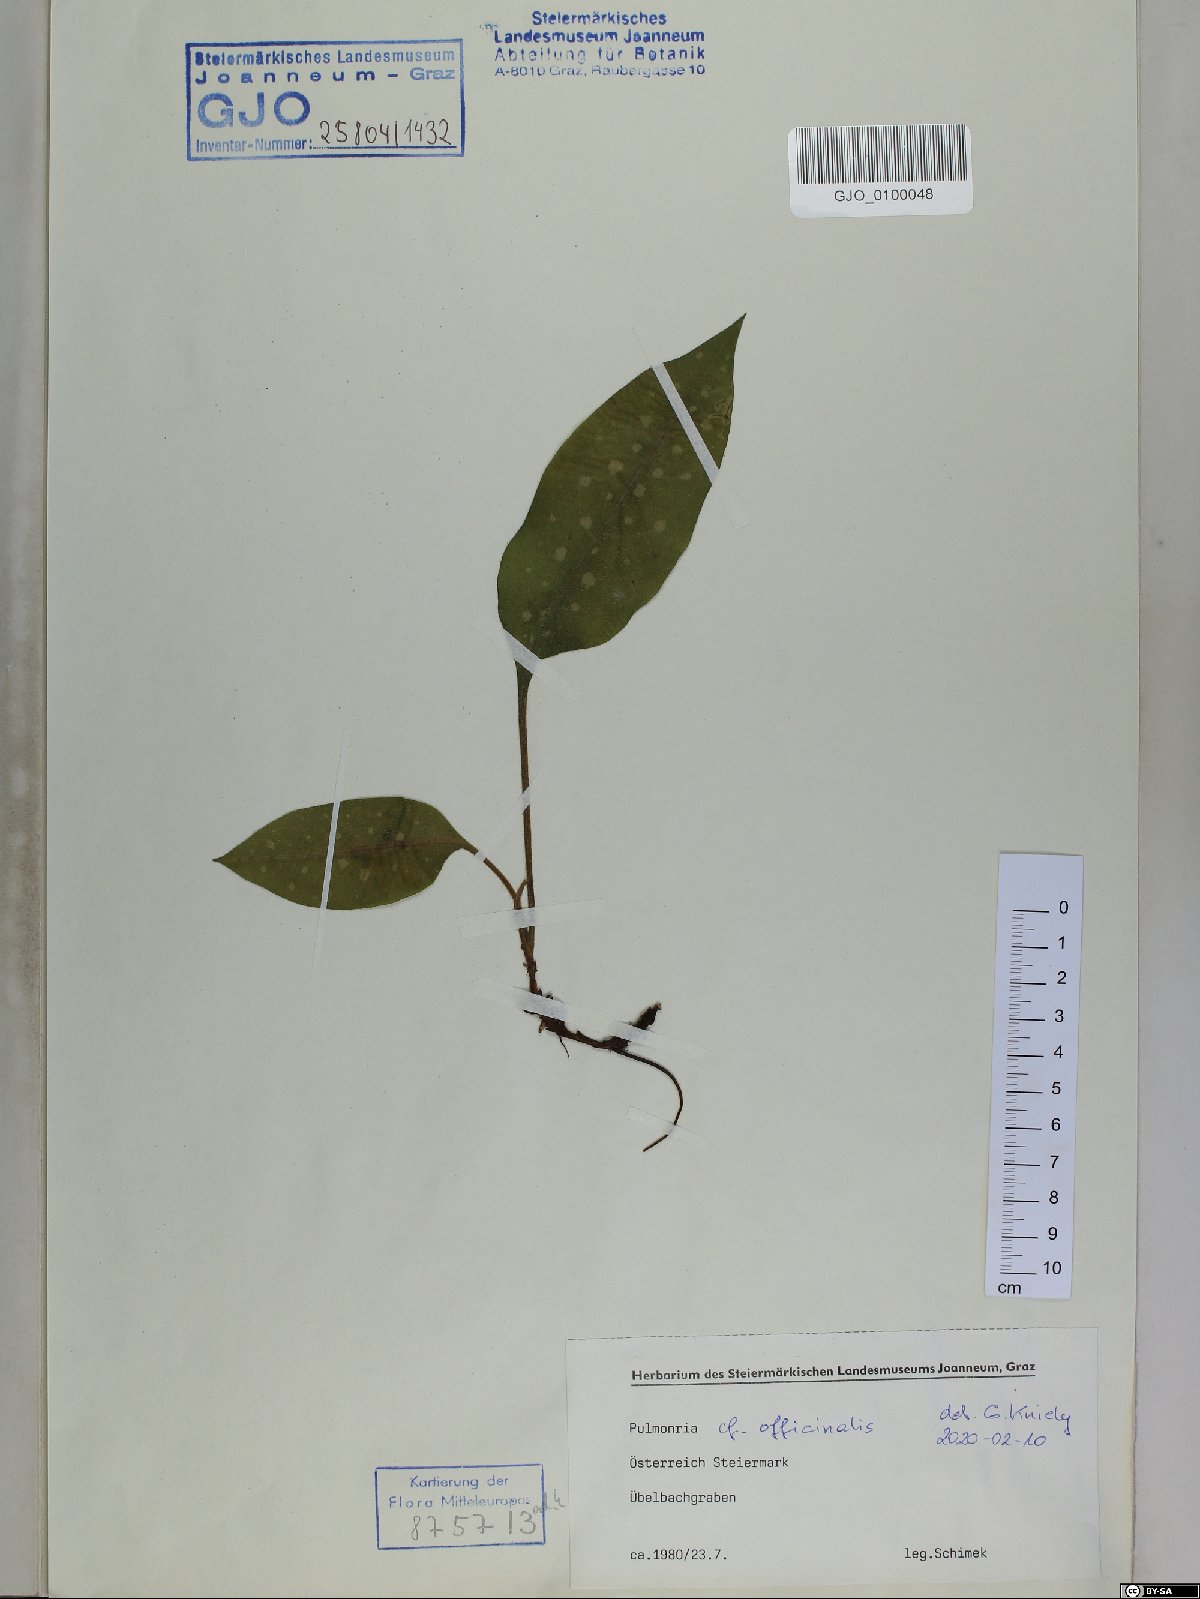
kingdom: Plantae
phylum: Tracheophyta
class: Magnoliopsida
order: Boraginales
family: Boraginaceae
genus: Pulmonaria
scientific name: Pulmonaria officinalis
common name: Lungwort
